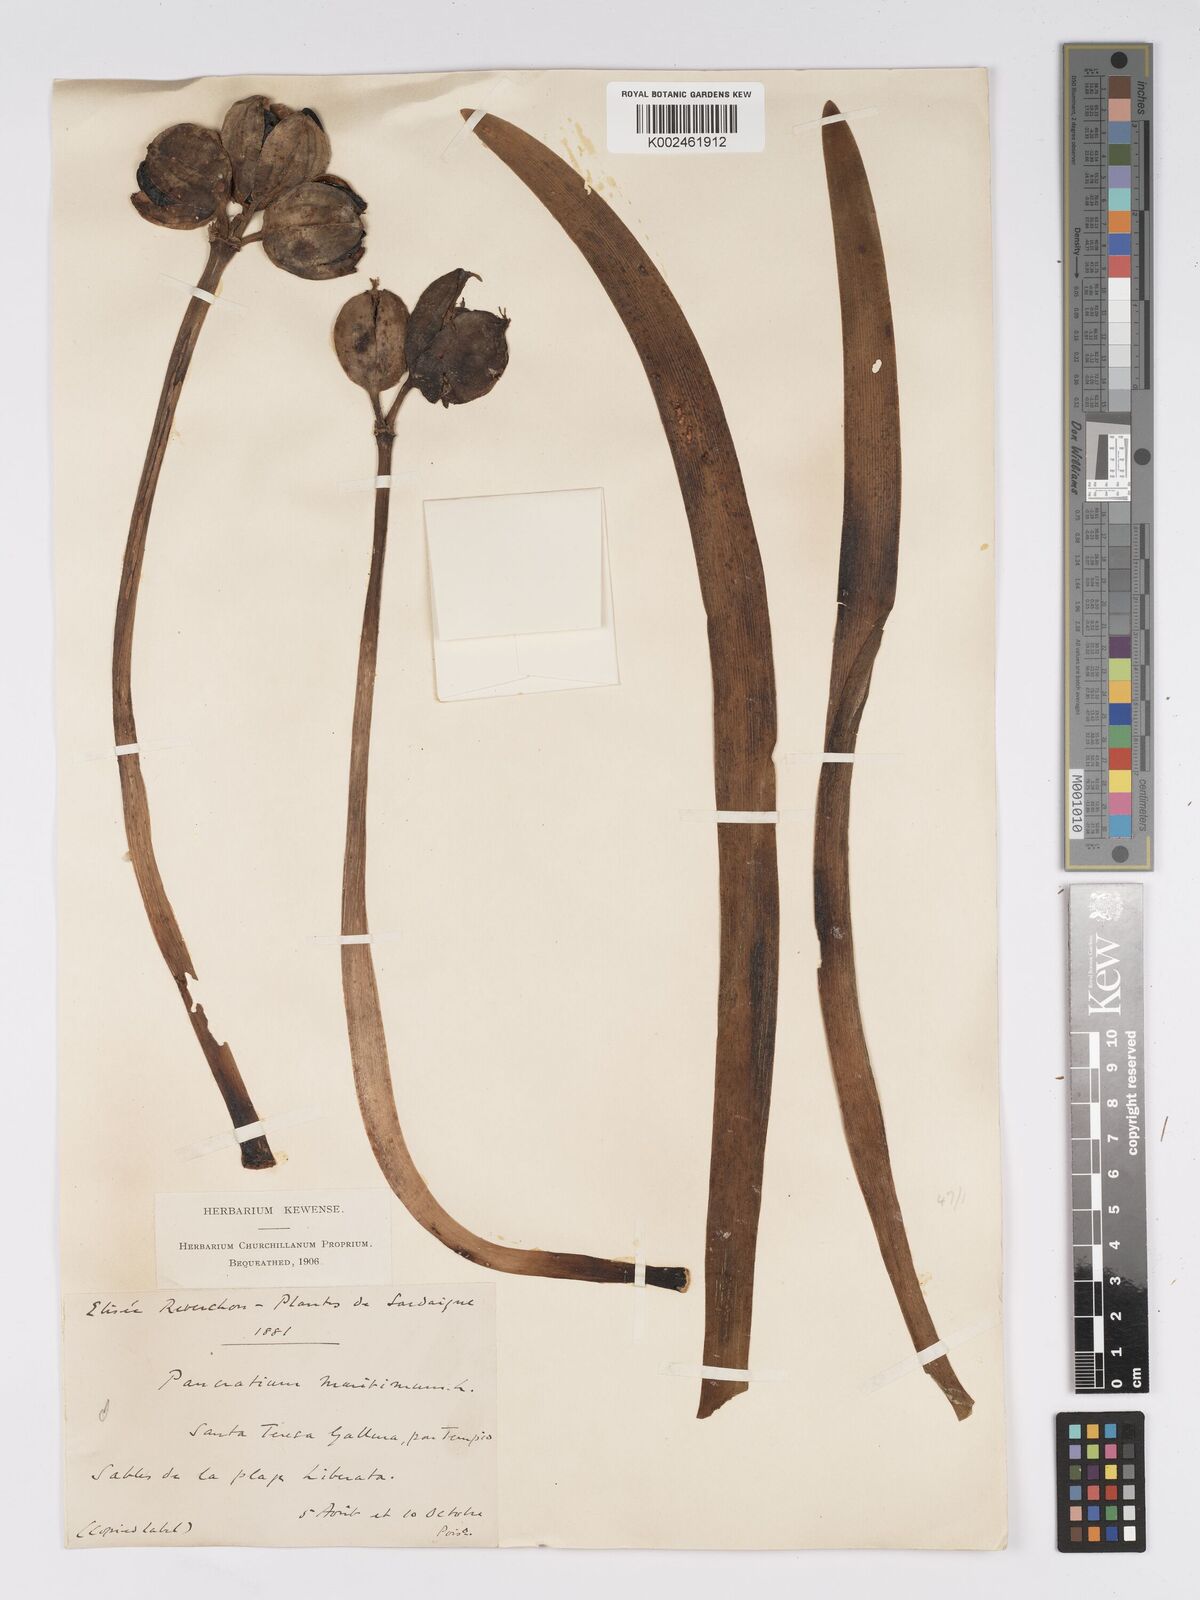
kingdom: Plantae
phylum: Tracheophyta
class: Liliopsida
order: Asparagales
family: Amaryllidaceae
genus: Pancratium
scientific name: Pancratium maritimum
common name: Sea-daffodil
